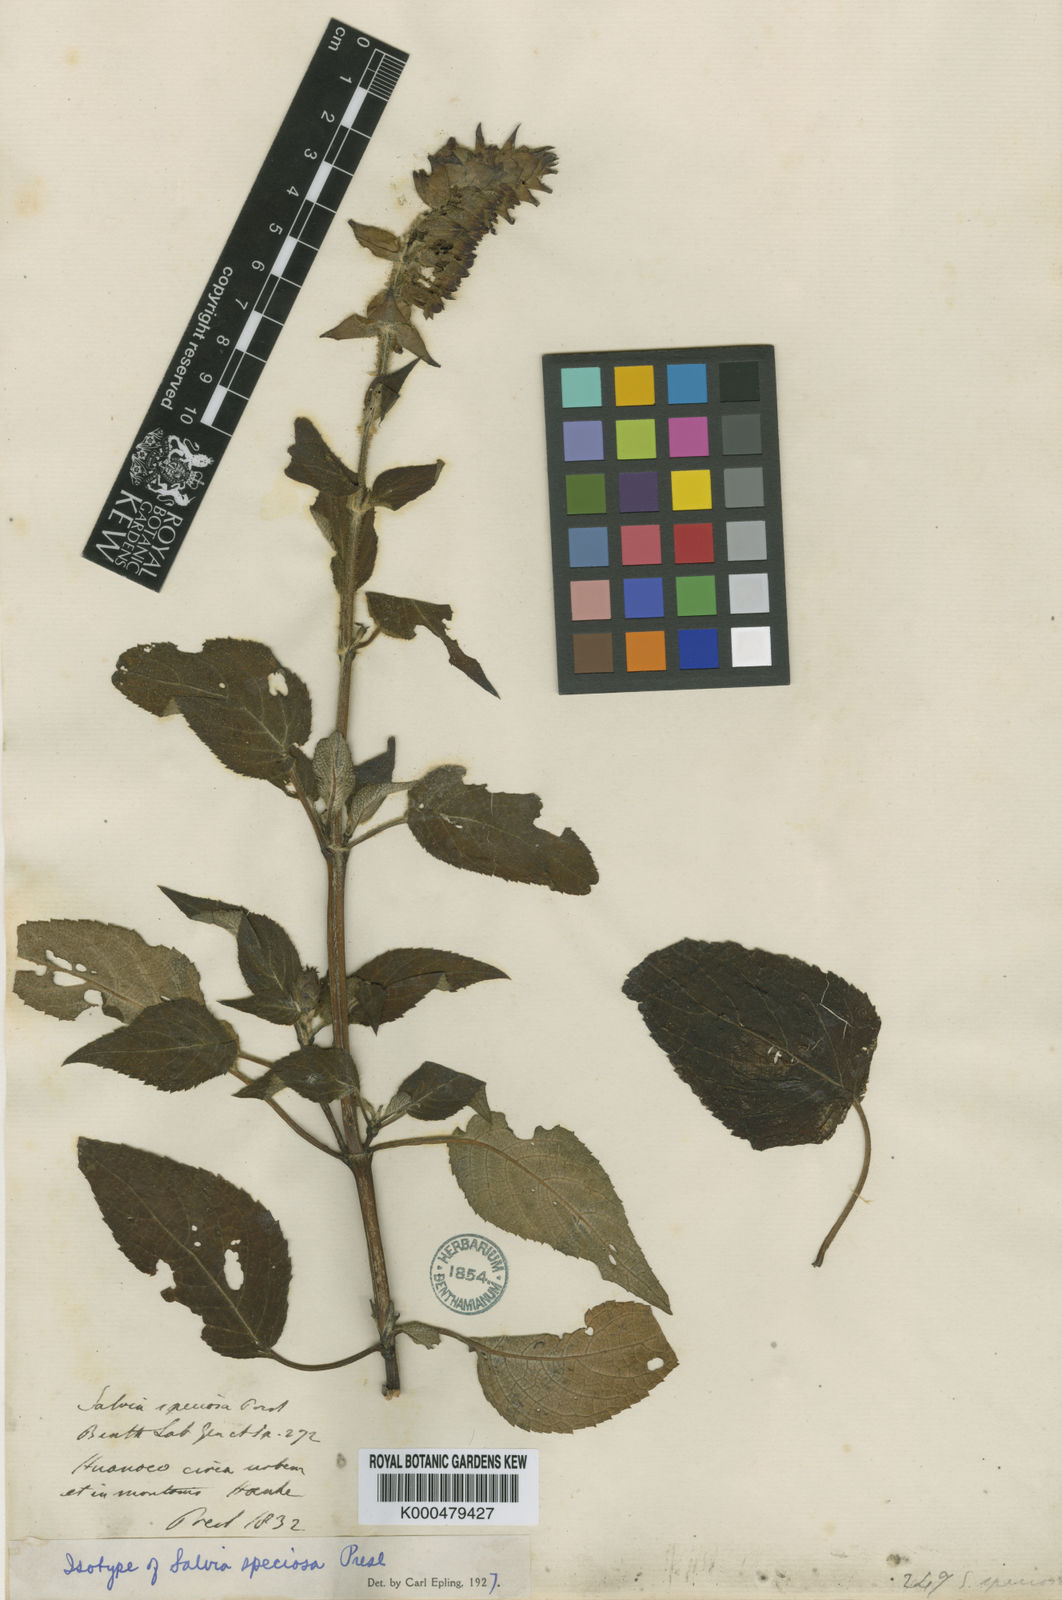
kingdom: Plantae
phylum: Tracheophyta
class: Magnoliopsida
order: Lamiales
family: Lamiaceae
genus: Salvia
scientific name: Salvia speciosa
